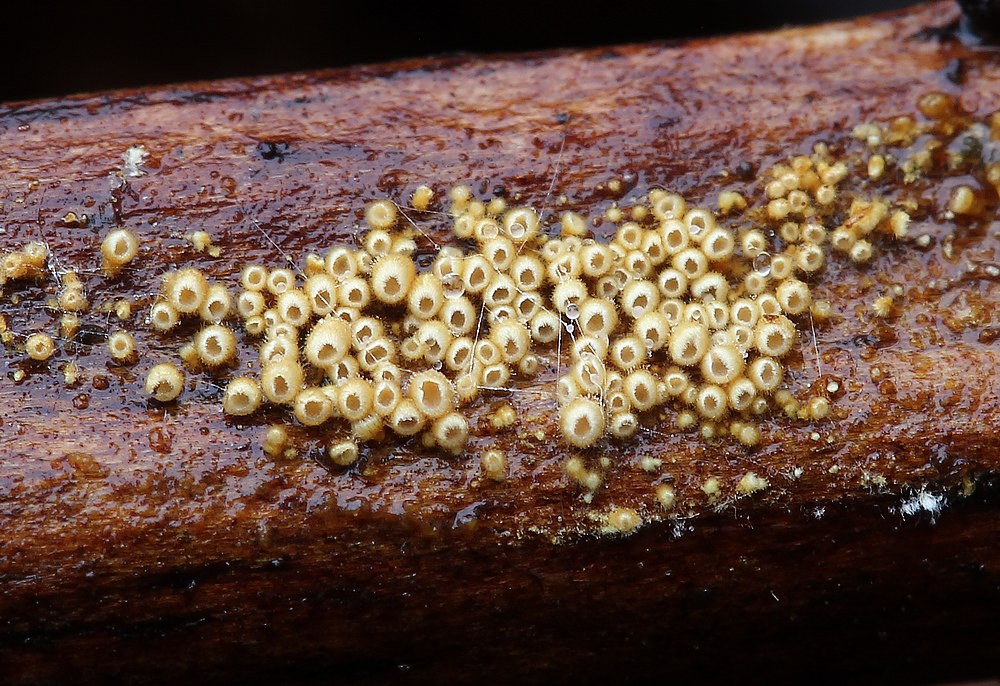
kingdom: Fungi
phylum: Basidiomycota
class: Agaricomycetes
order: Agaricales
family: Niaceae
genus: Woldmaria
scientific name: Woldmaria filicina
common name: bregnerør
